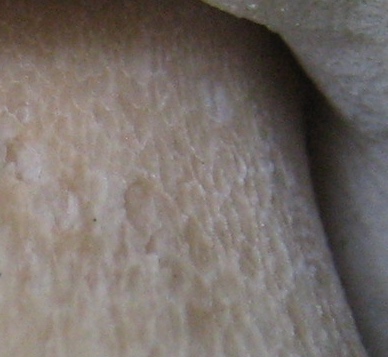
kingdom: Fungi
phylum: Basidiomycota
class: Agaricomycetes
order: Boletales
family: Boletaceae
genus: Boletus
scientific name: Boletus edulis
